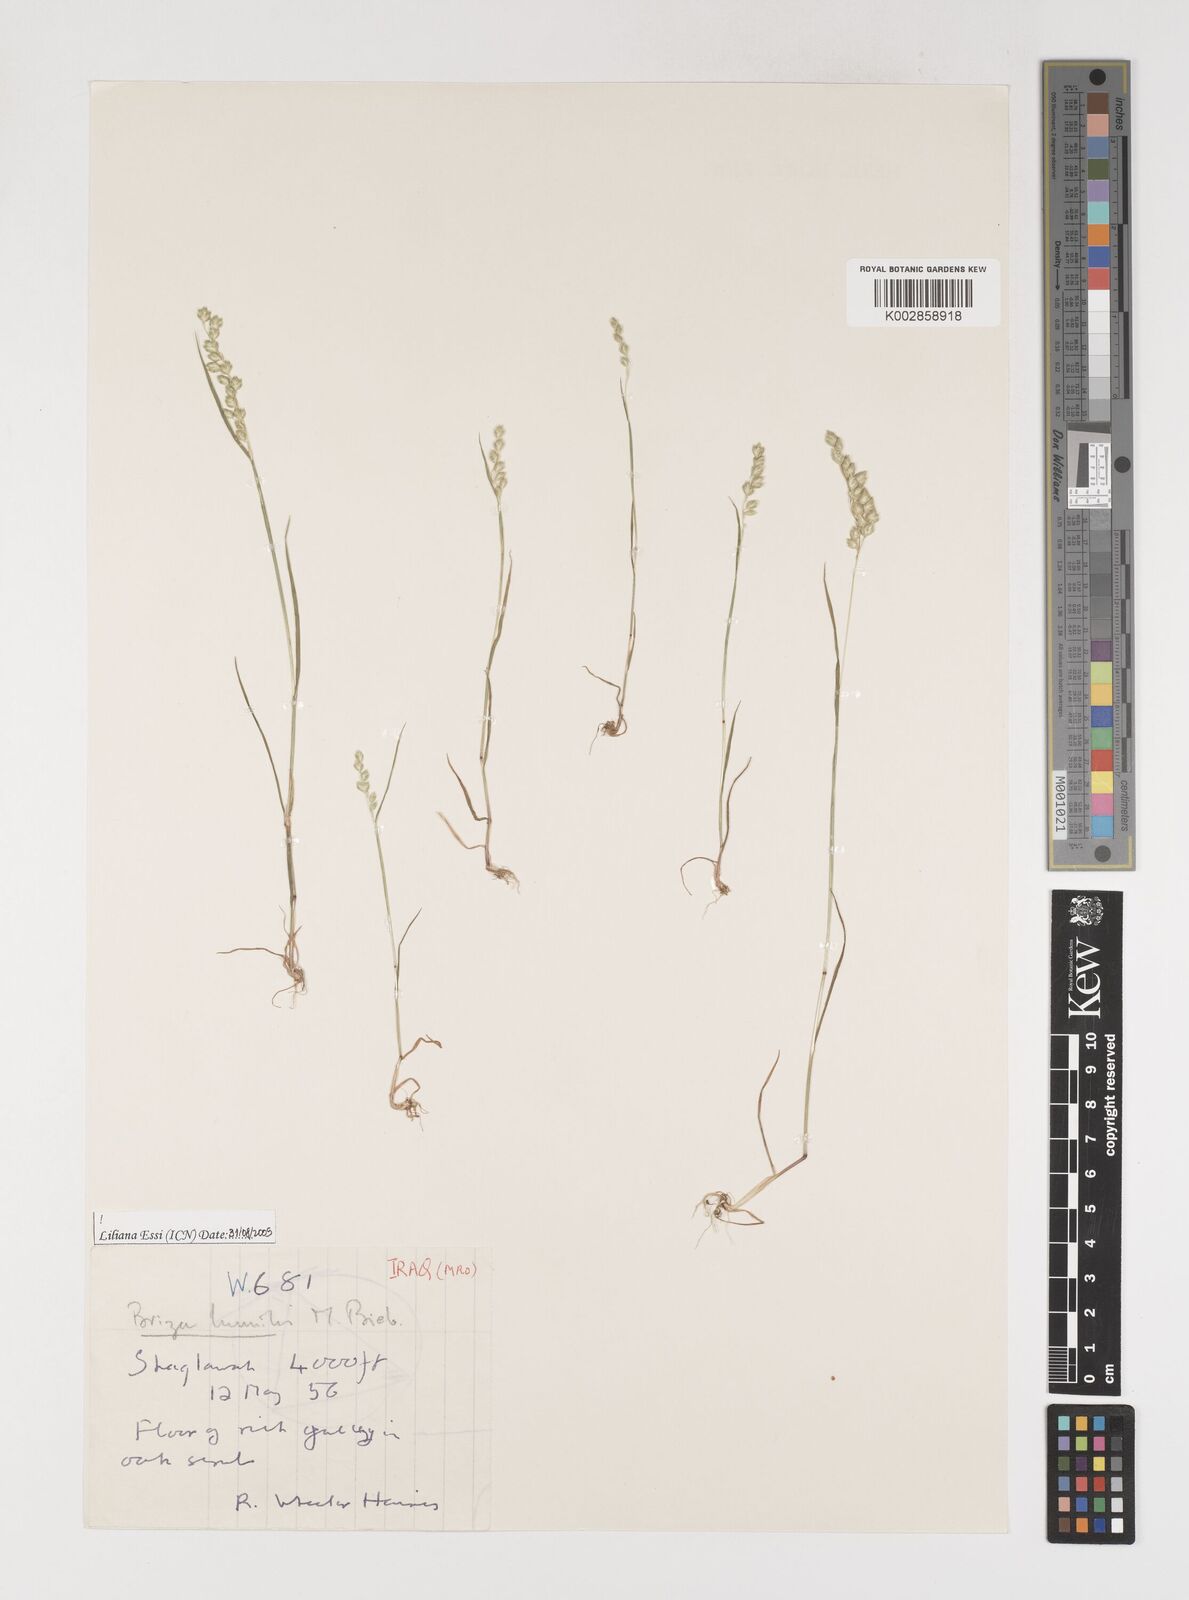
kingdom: Plantae
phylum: Tracheophyta
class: Liliopsida
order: Poales
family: Poaceae
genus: Briza
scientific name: Briza humilis
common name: Spiked quaking grass
